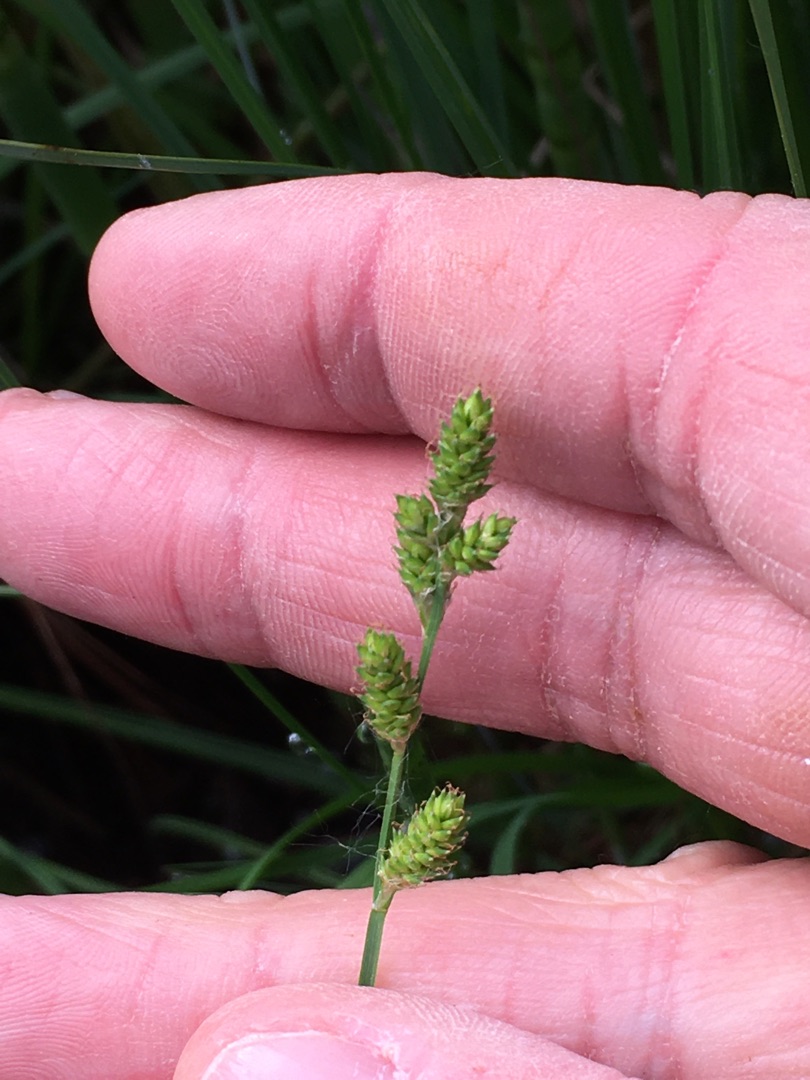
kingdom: Plantae
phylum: Tracheophyta
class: Liliopsida
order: Poales
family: Cyperaceae
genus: Carex
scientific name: Carex canescens
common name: Grå star
